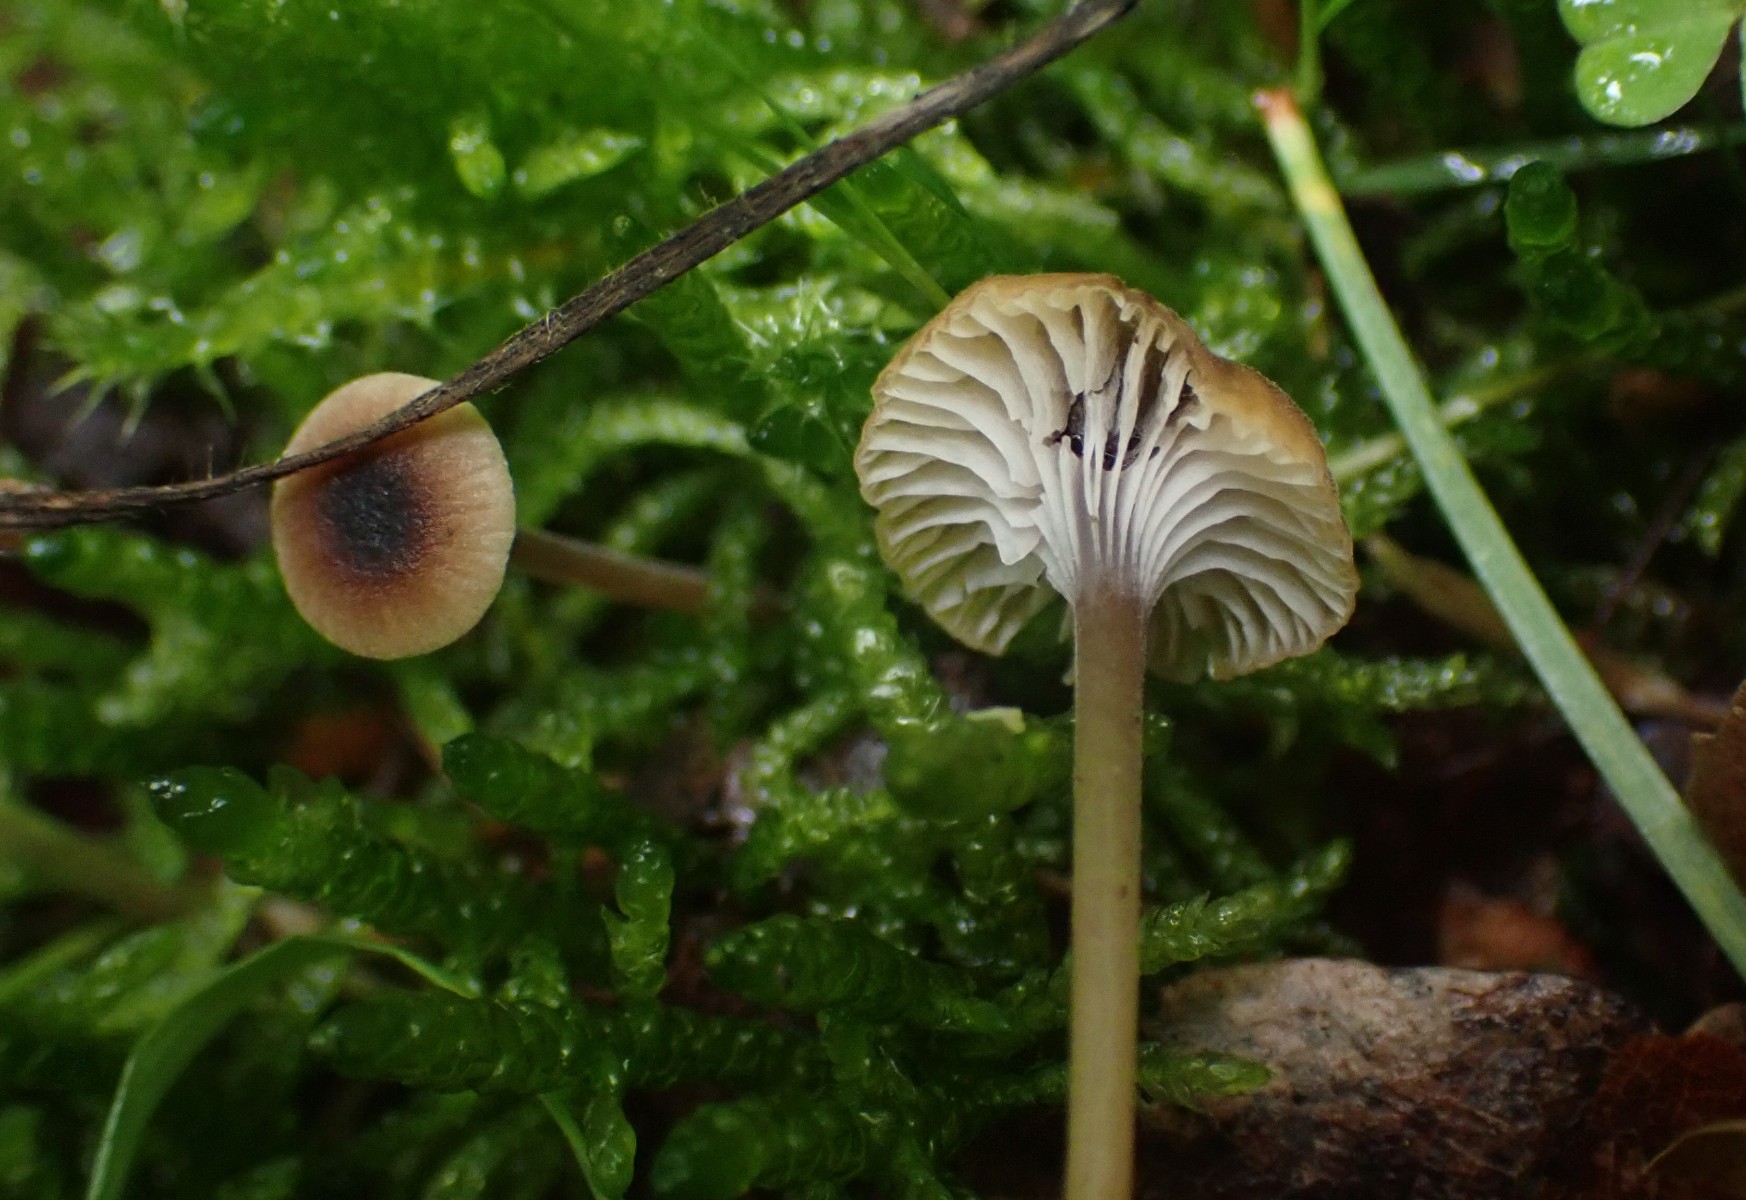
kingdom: Fungi
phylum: Basidiomycota
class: Agaricomycetes
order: Hymenochaetales
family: Rickenellaceae
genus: Rickenella
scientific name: Rickenella swartzii
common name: finstokket mosnavlehat
